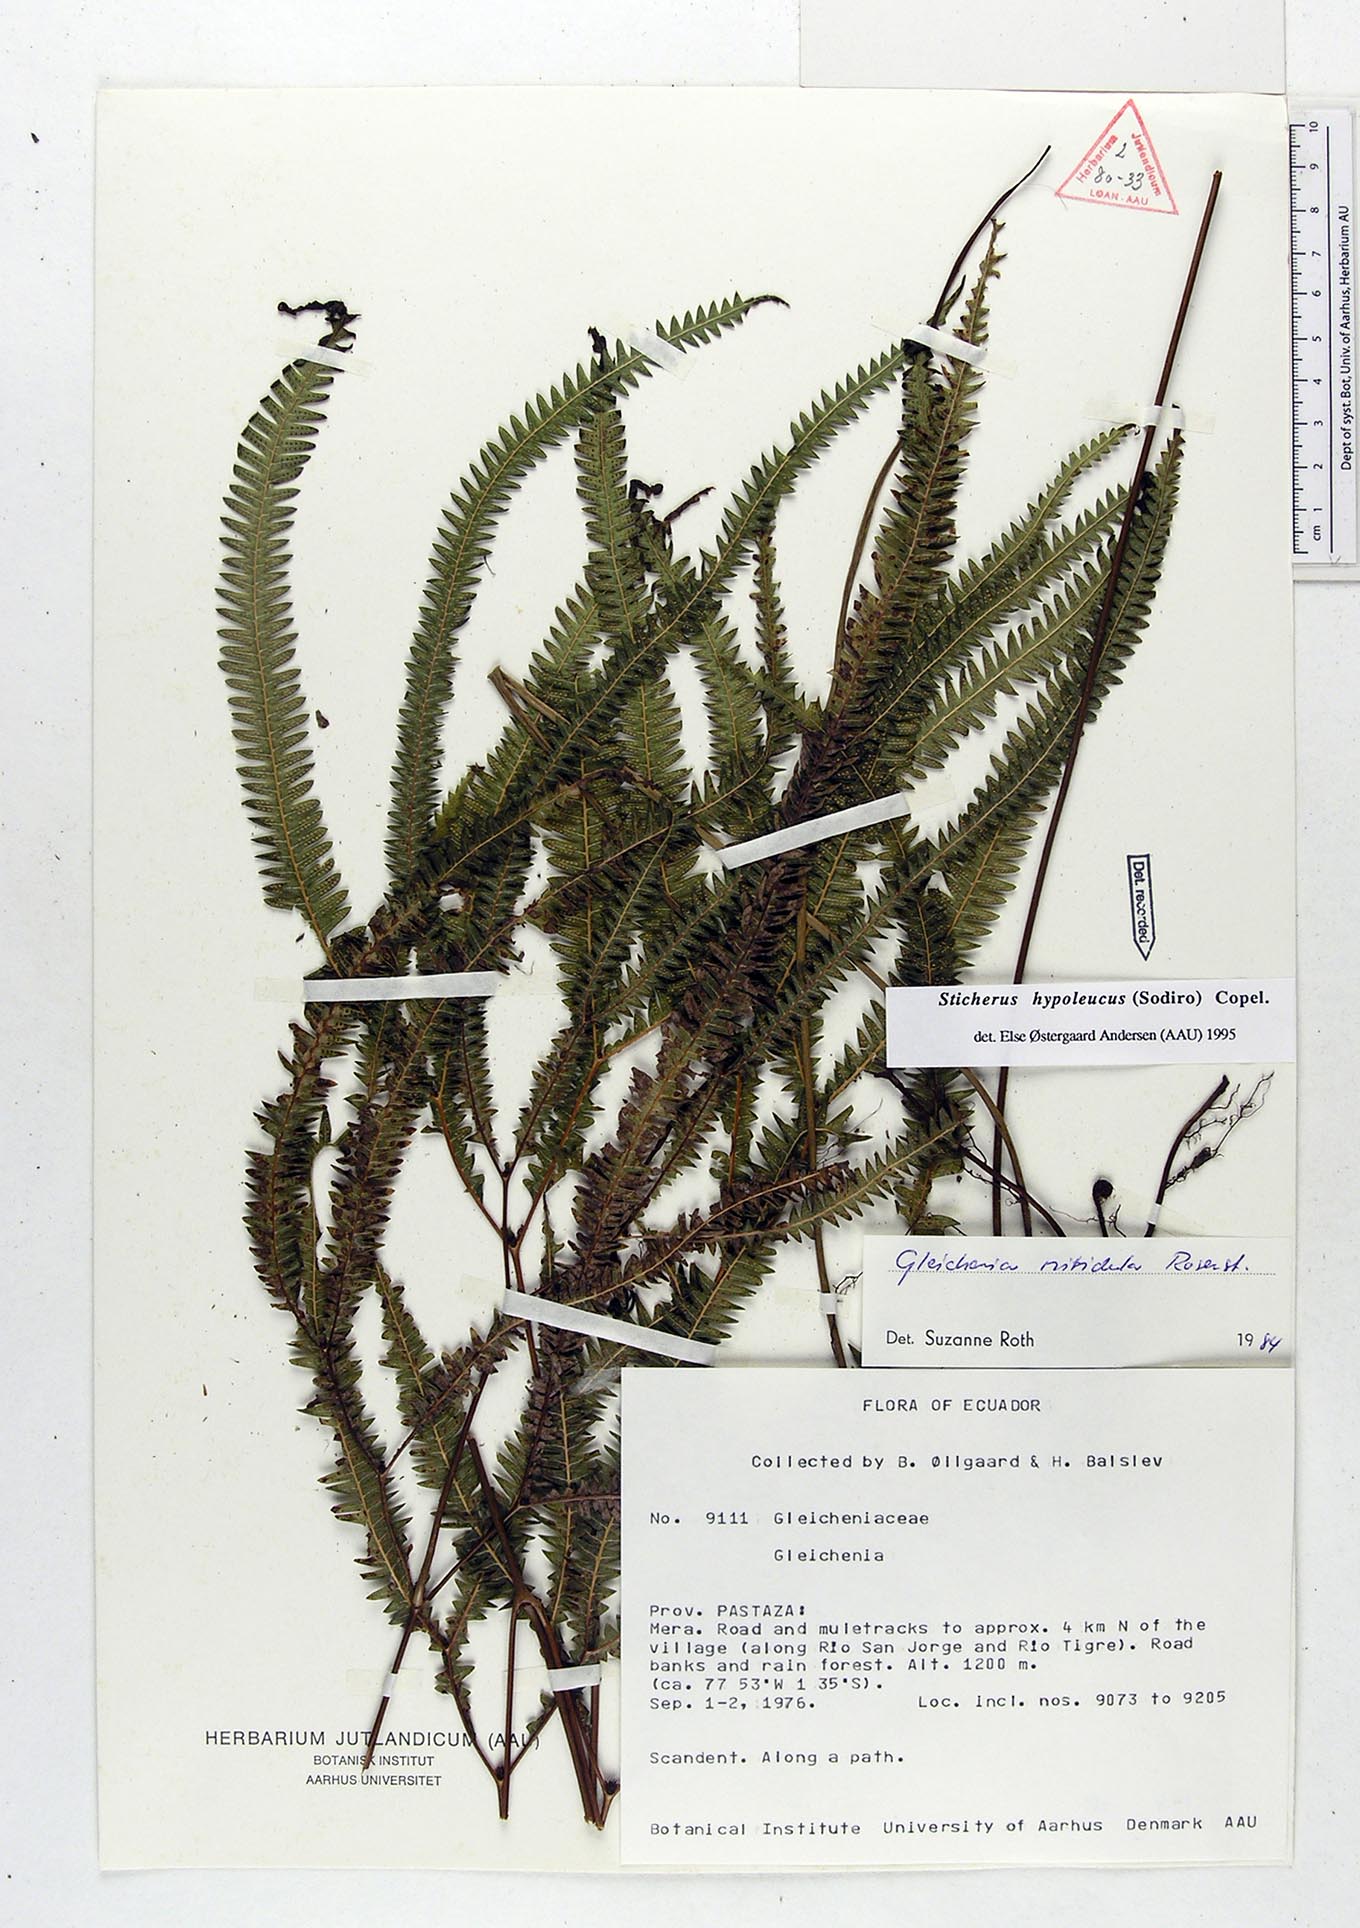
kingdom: Plantae
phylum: Tracheophyta
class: Polypodiopsida
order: Gleicheniales
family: Gleicheniaceae
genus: Sticherus
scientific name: Sticherus hypoleucus
